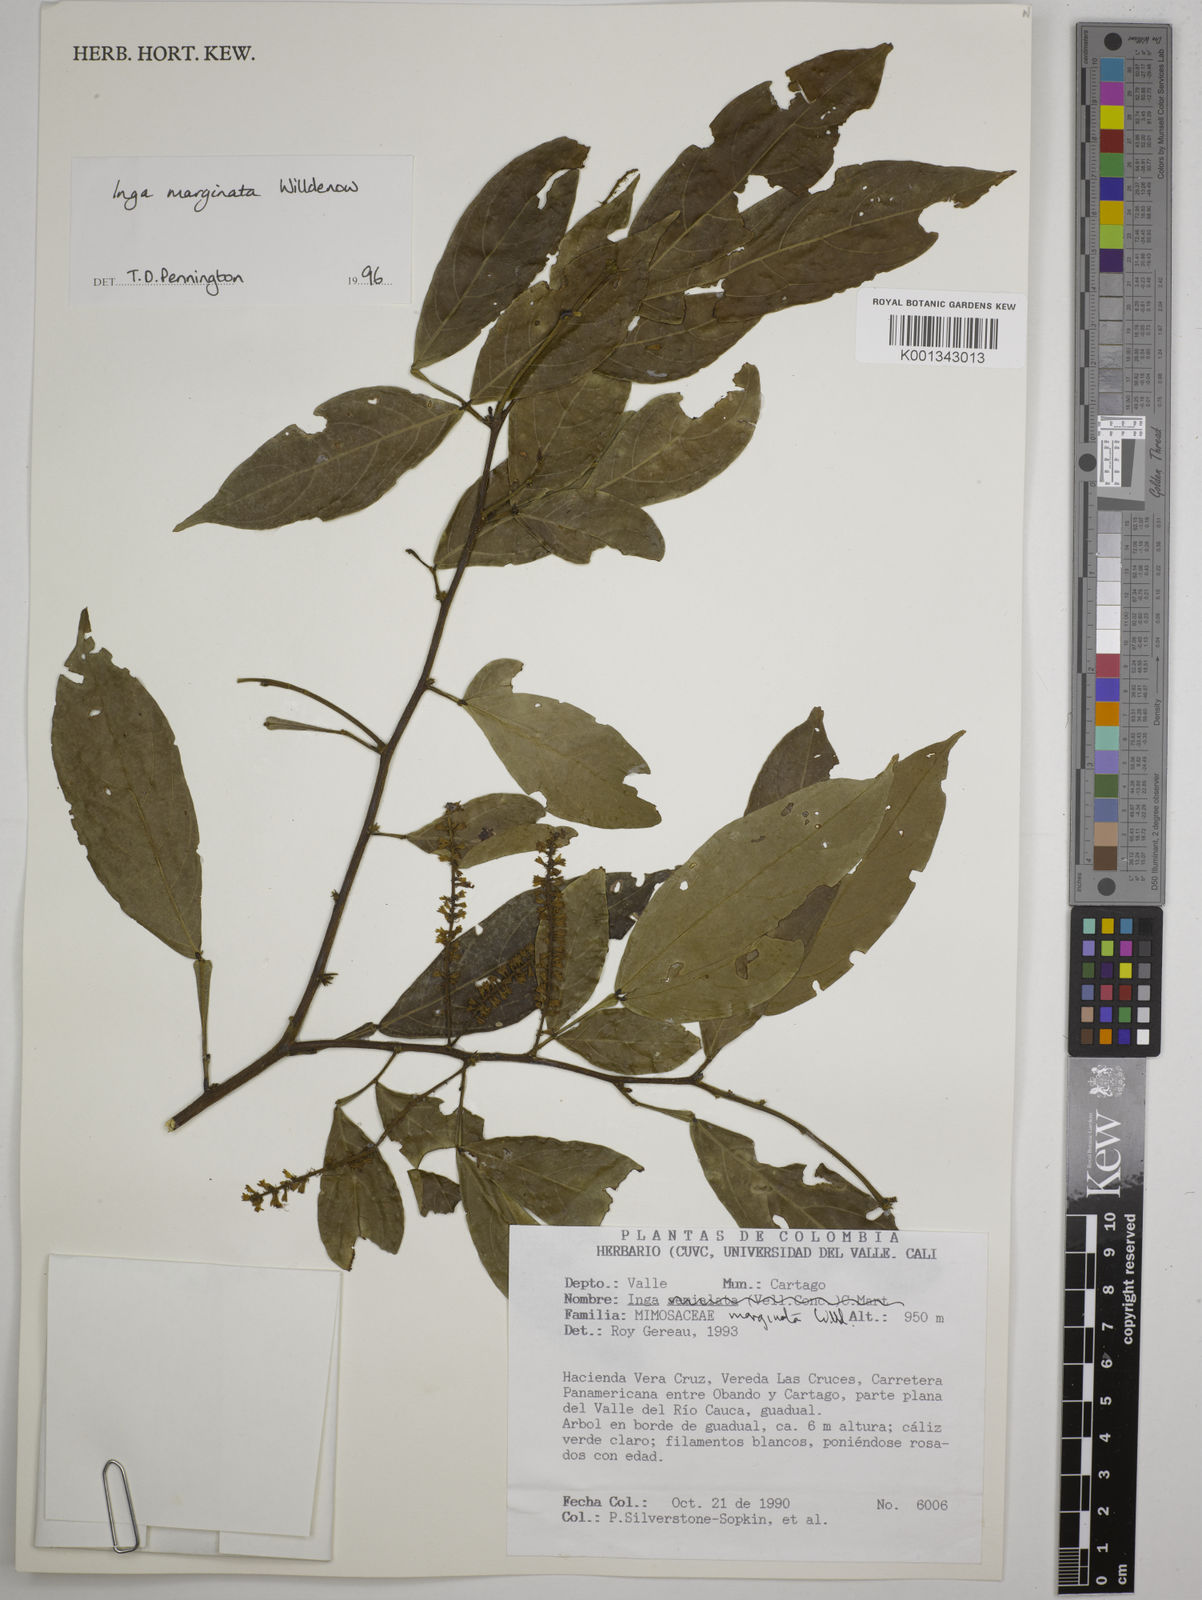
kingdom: Plantae
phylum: Tracheophyta
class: Magnoliopsida
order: Fabales
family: Fabaceae
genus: Inga
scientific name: Inga marginata
